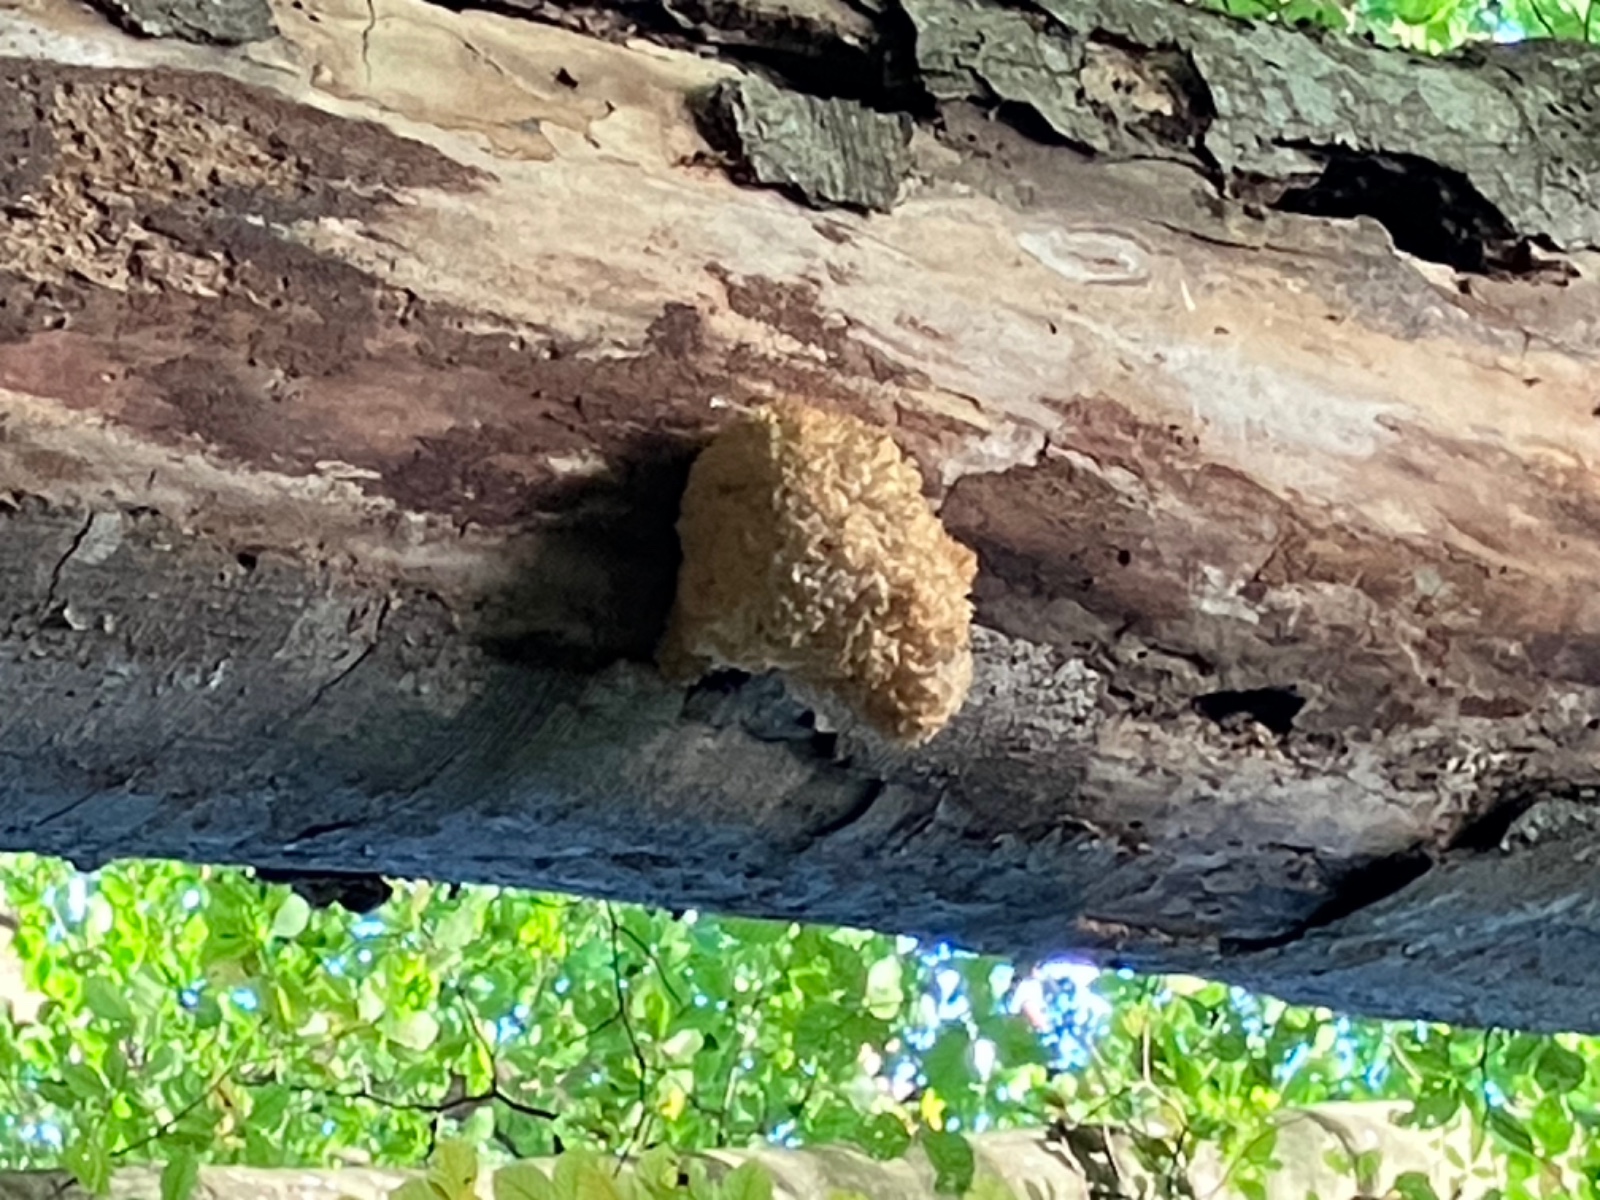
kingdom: Fungi
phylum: Basidiomycota
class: Agaricomycetes
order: Russulales
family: Hericiaceae
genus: Hericium
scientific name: Hericium coralloides
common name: koralpigsvamp
